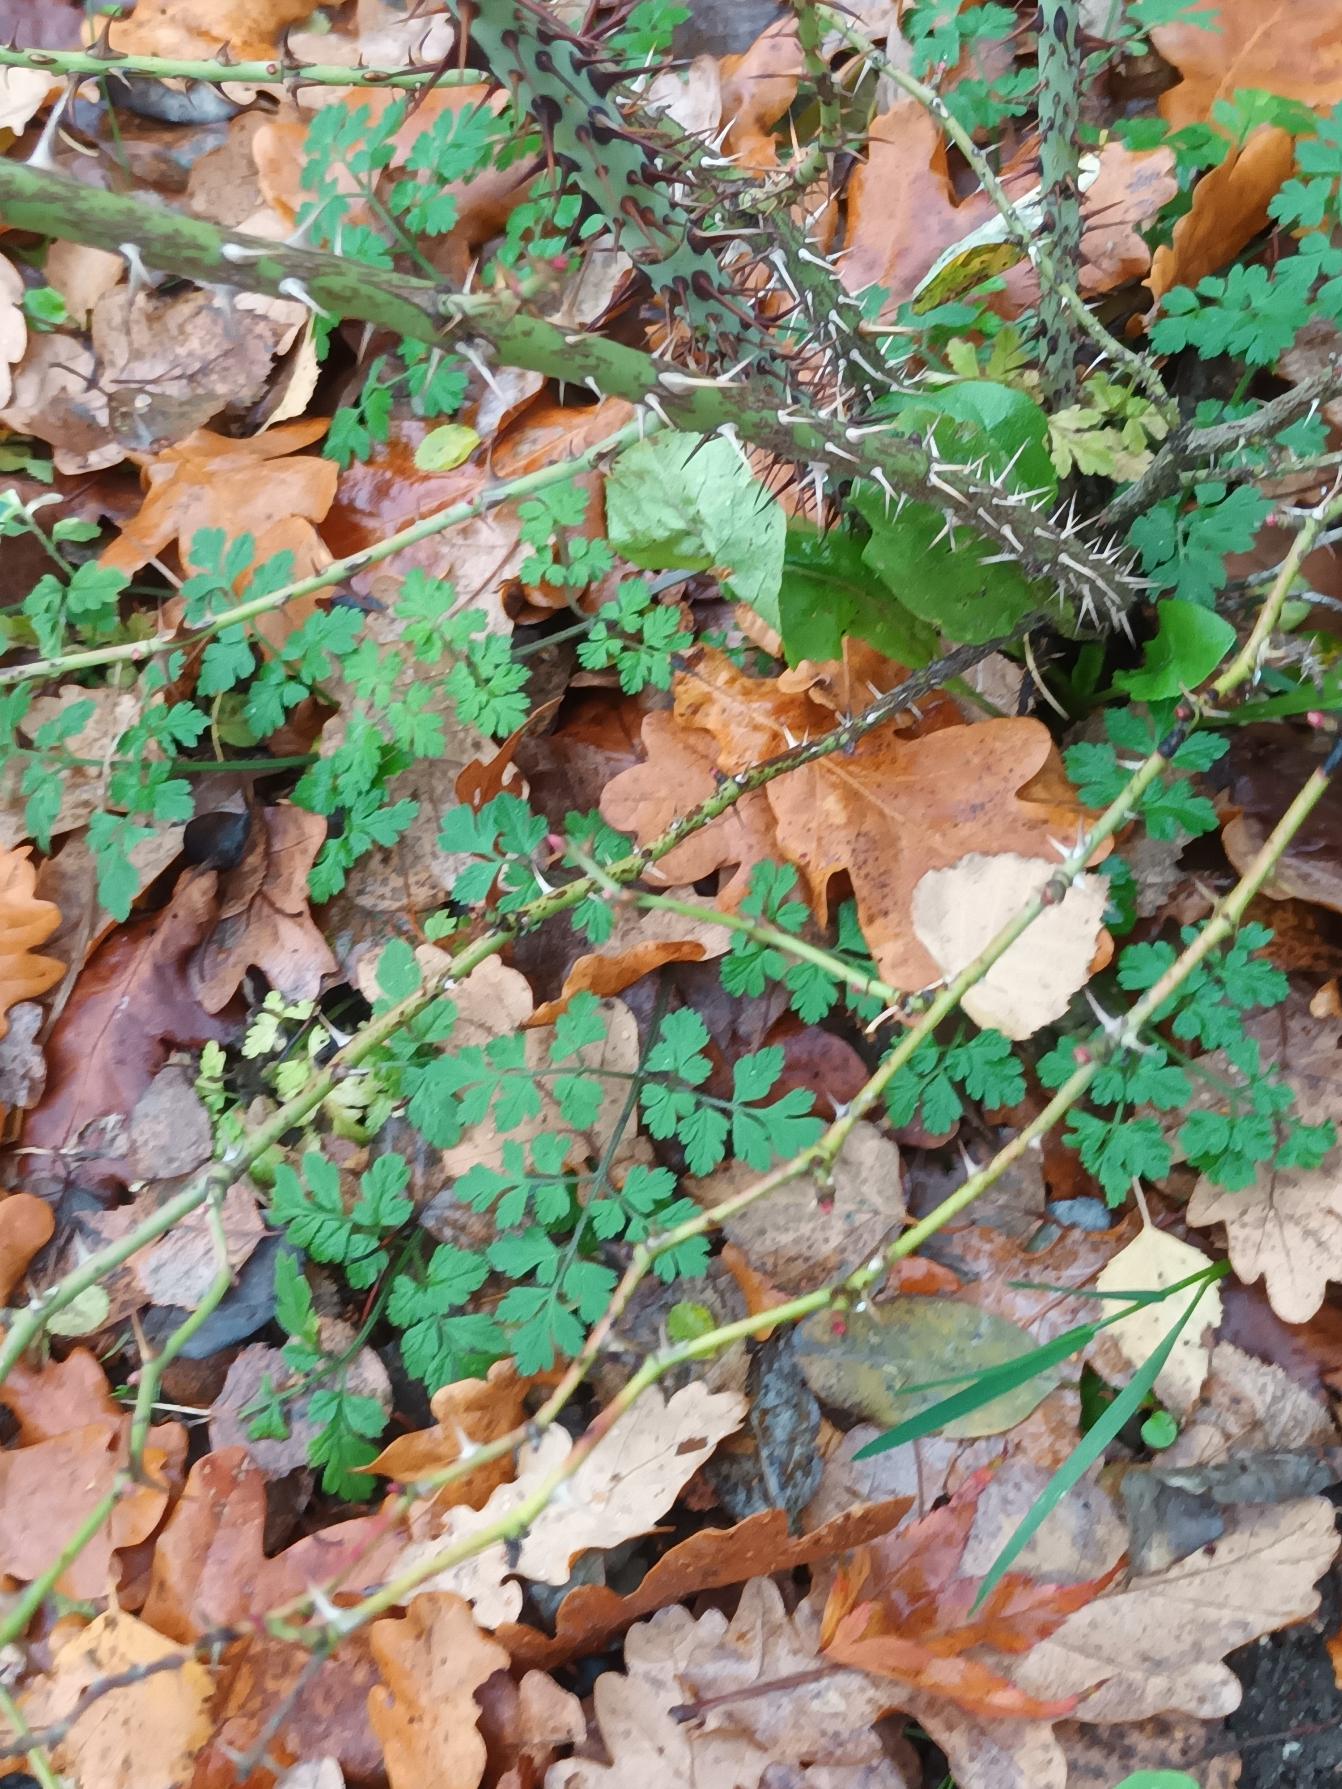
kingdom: Plantae
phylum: Tracheophyta
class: Magnoliopsida
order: Apiales
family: Apiaceae
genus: Chaerophyllum
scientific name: Chaerophyllum temulum
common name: Almindelig hulsvøb
